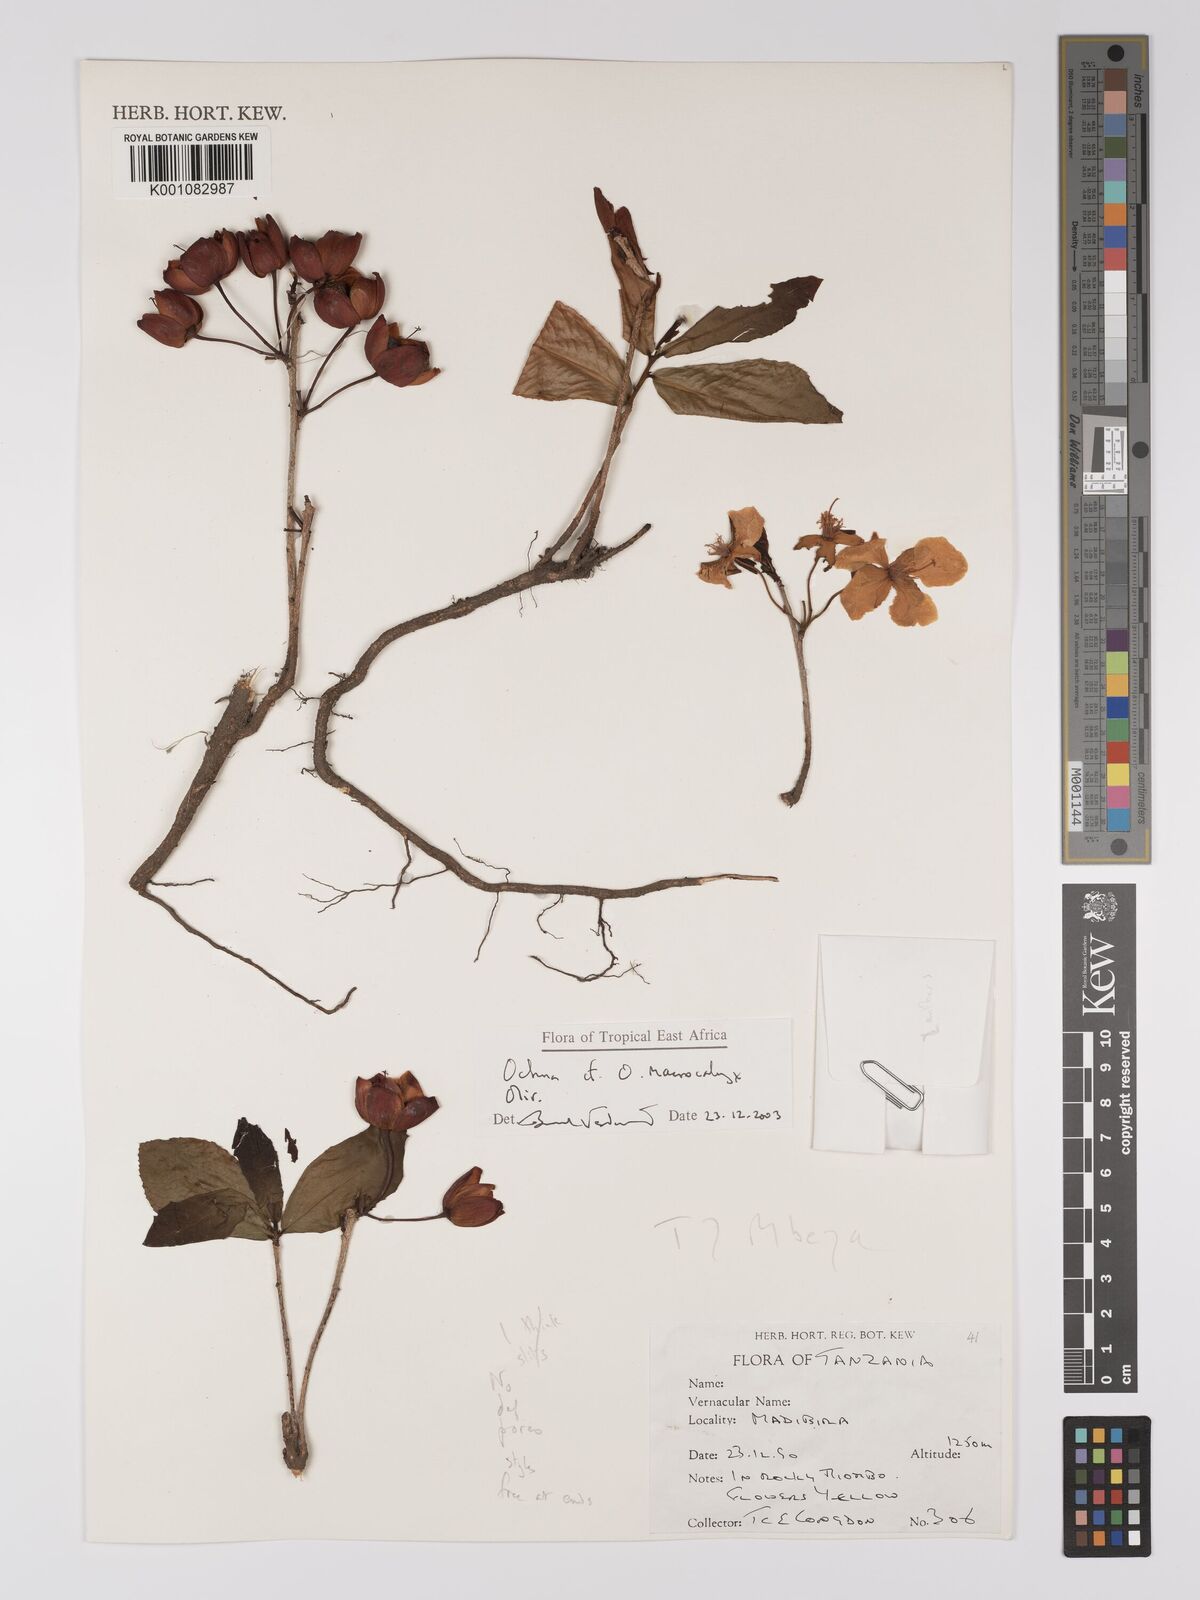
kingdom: Plantae
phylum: Tracheophyta
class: Magnoliopsida
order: Malpighiales
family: Ochnaceae
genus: Ochna
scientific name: Ochna macrocalyx
